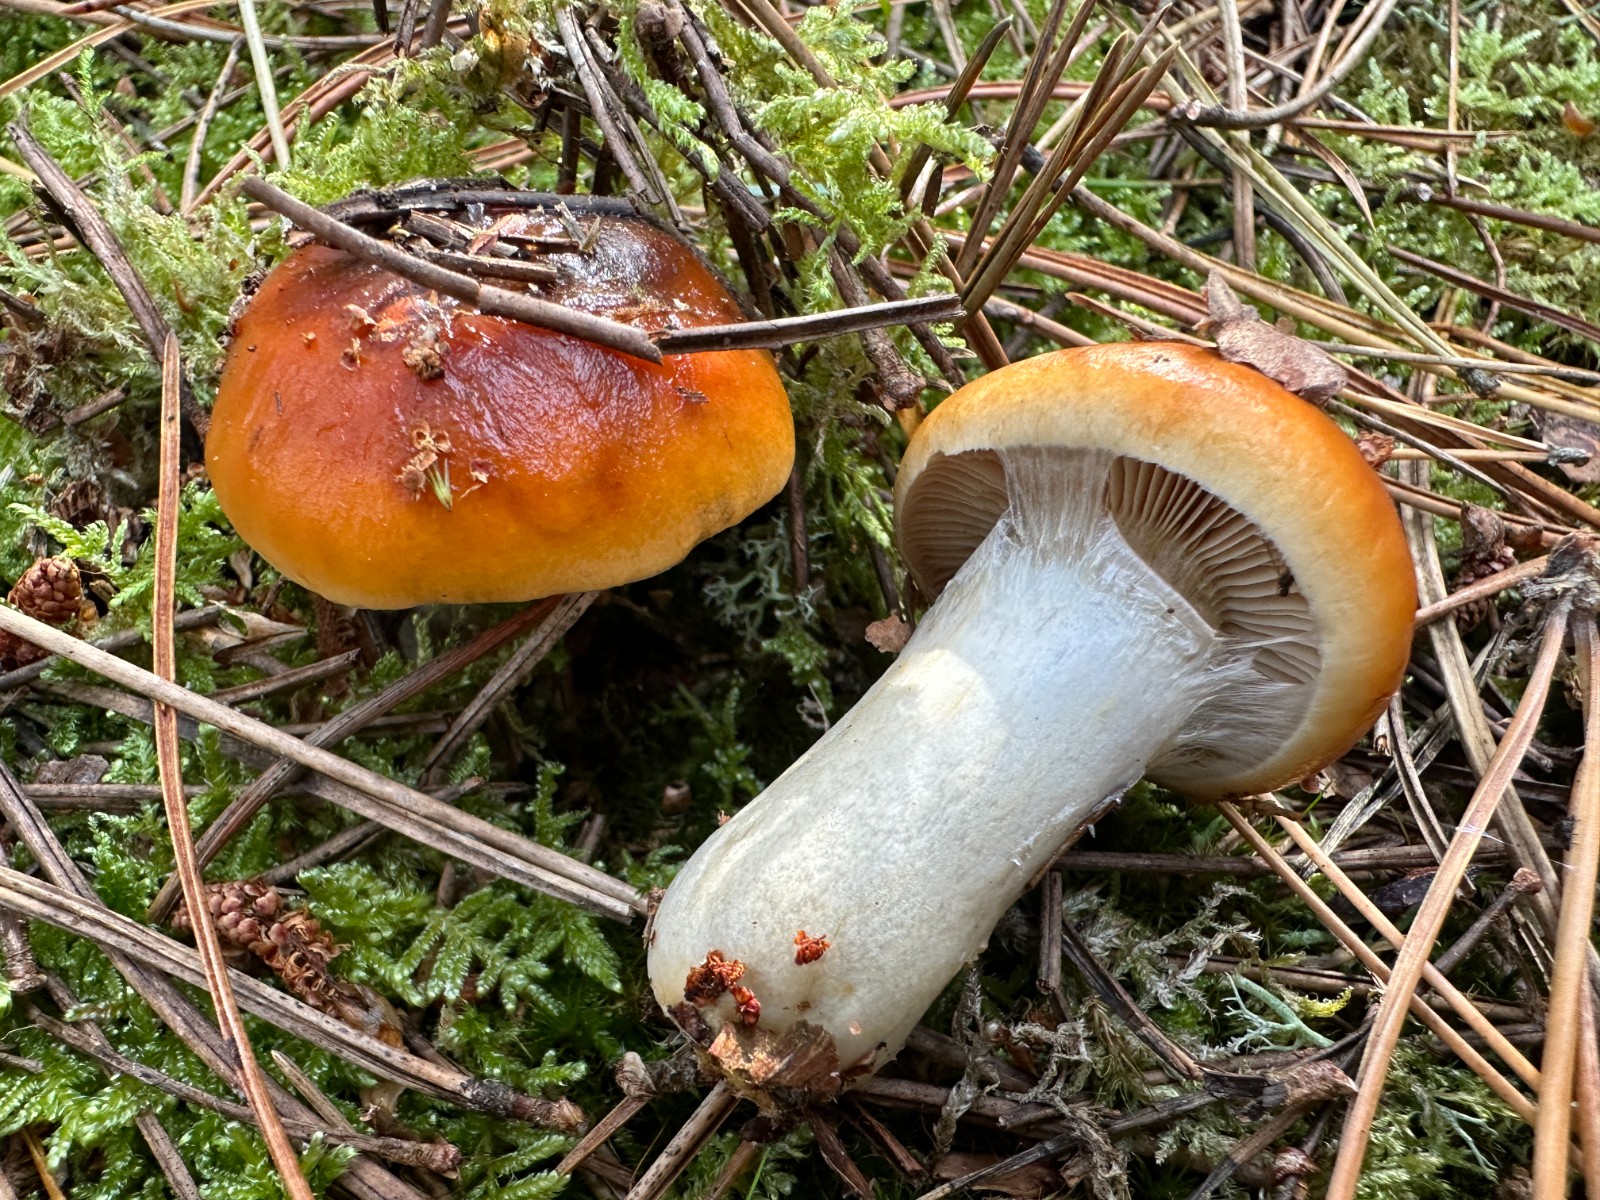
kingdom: Fungi
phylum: Basidiomycota
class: Agaricomycetes
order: Agaricales
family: Cortinariaceae
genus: Cortinarius
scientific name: Cortinarius mucosus
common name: kastaniebrun slørhat
